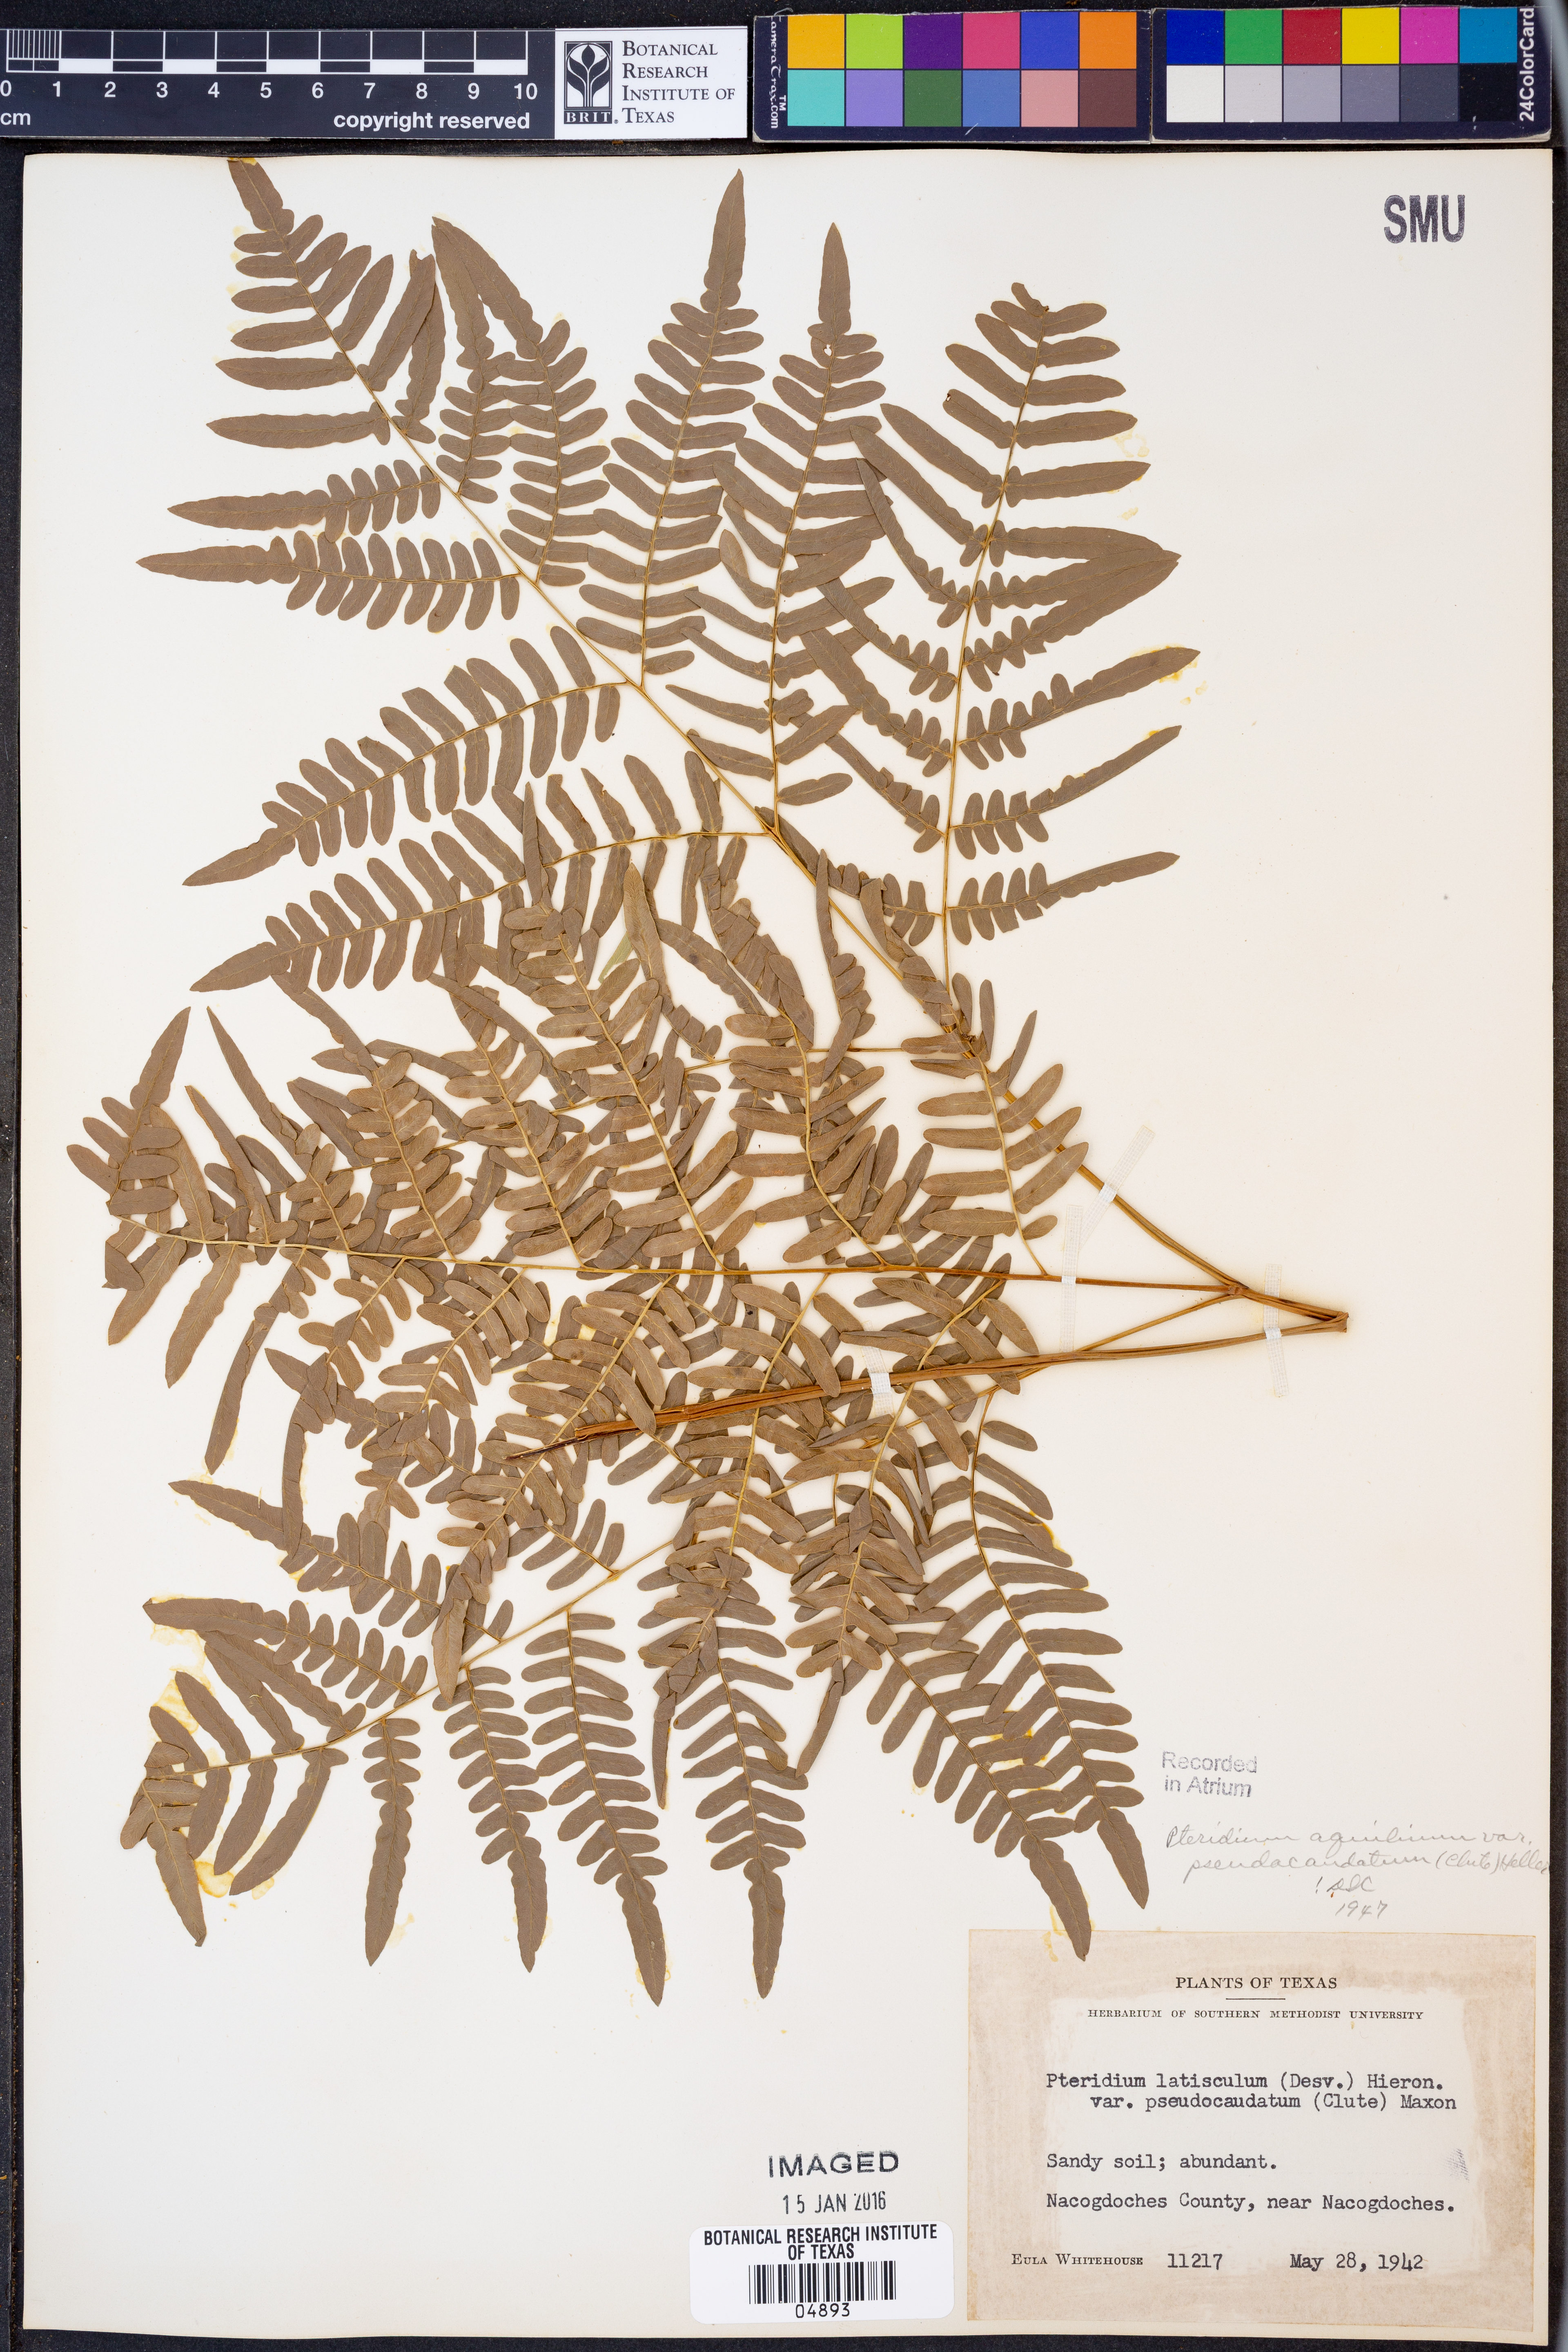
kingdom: Plantae
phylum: Tracheophyta
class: Polypodiopsida
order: Polypodiales
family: Dennstaedtiaceae
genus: Pteridium
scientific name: Pteridium aquilinum
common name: Bracken
